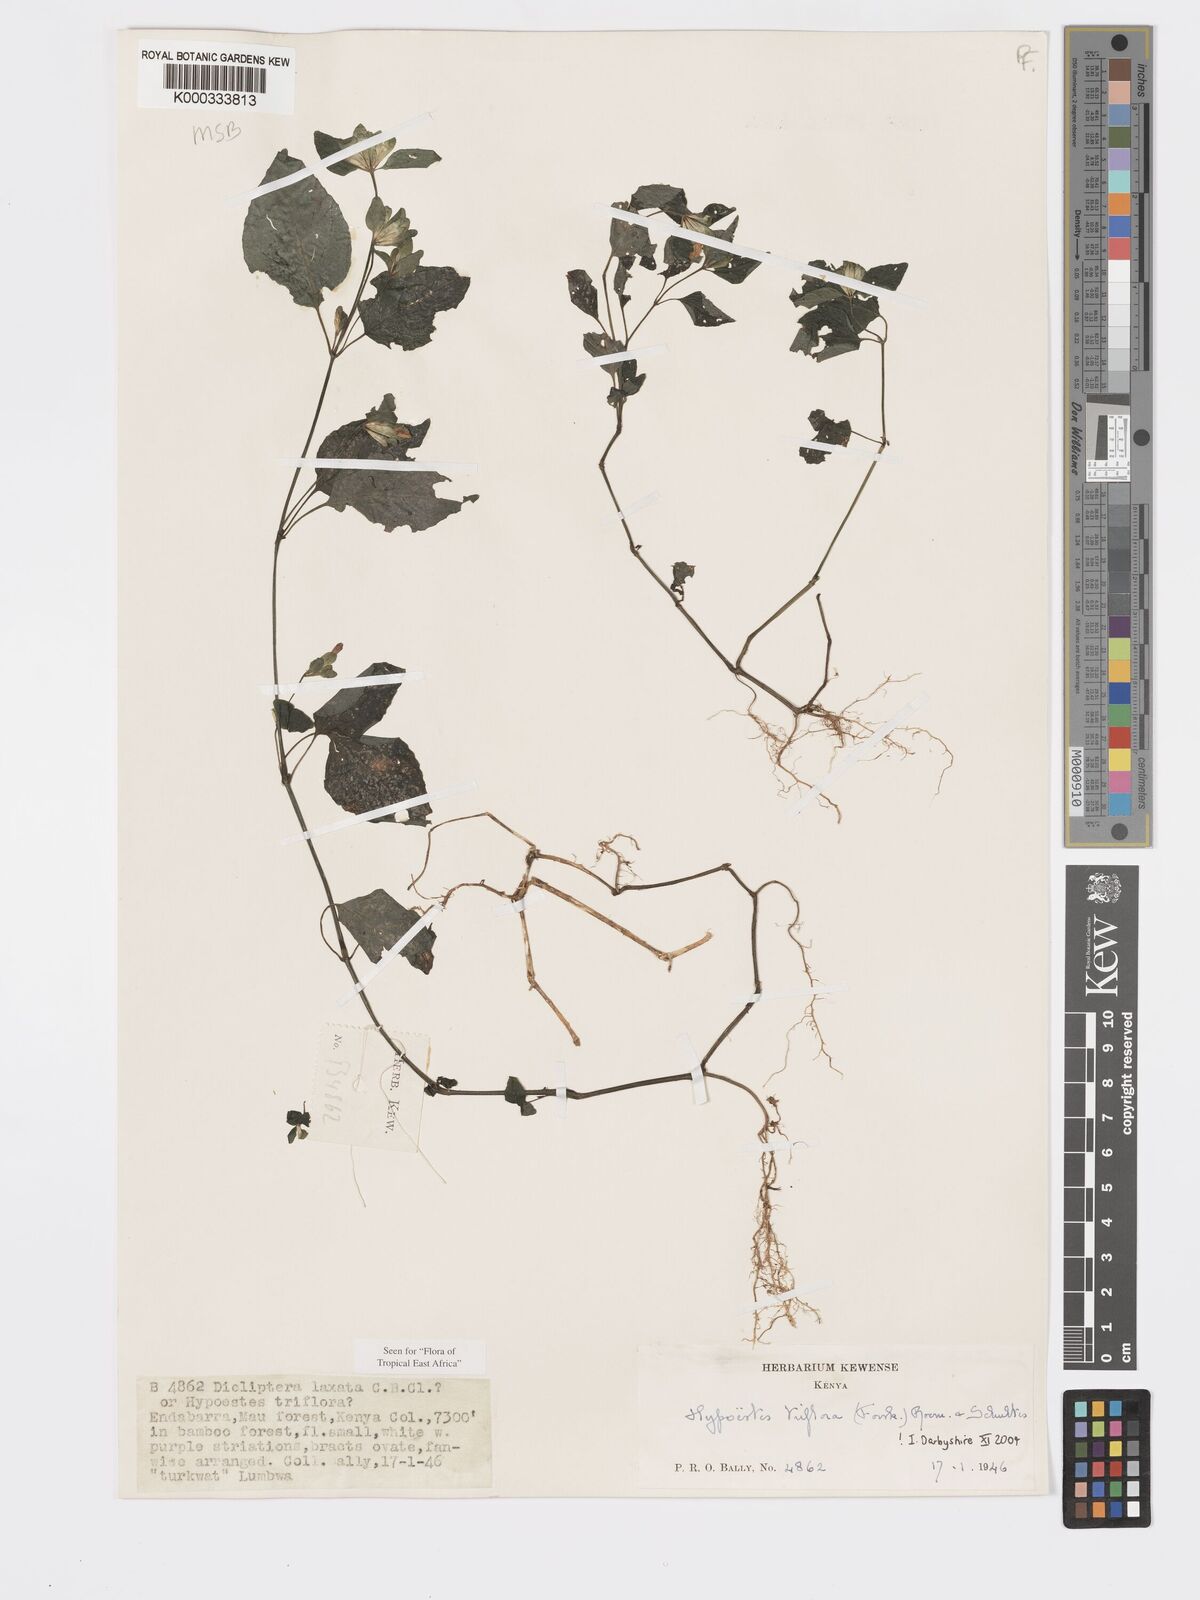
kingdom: Plantae
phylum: Tracheophyta
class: Magnoliopsida
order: Lamiales
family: Acanthaceae
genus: Hypoestes
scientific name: Hypoestes triflora
